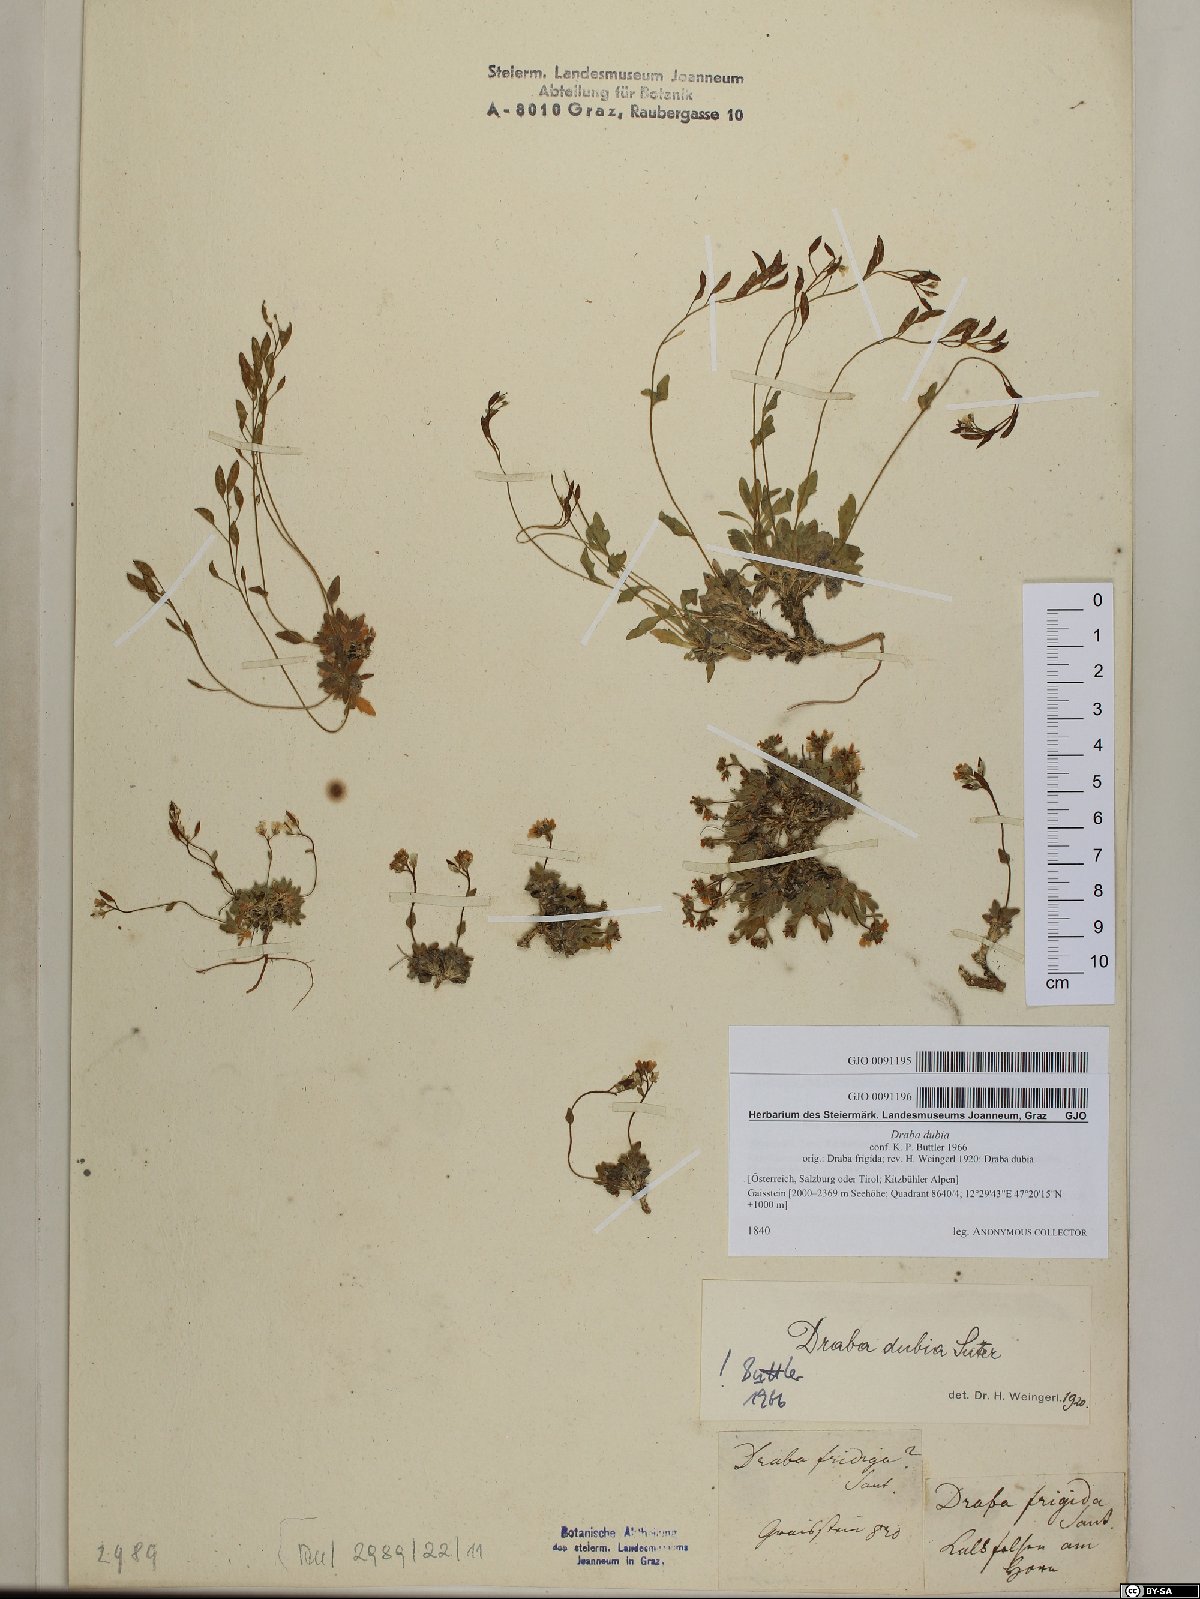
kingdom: Plantae
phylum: Tracheophyta
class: Magnoliopsida
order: Brassicales
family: Brassicaceae
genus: Draba
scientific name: Draba dubia
